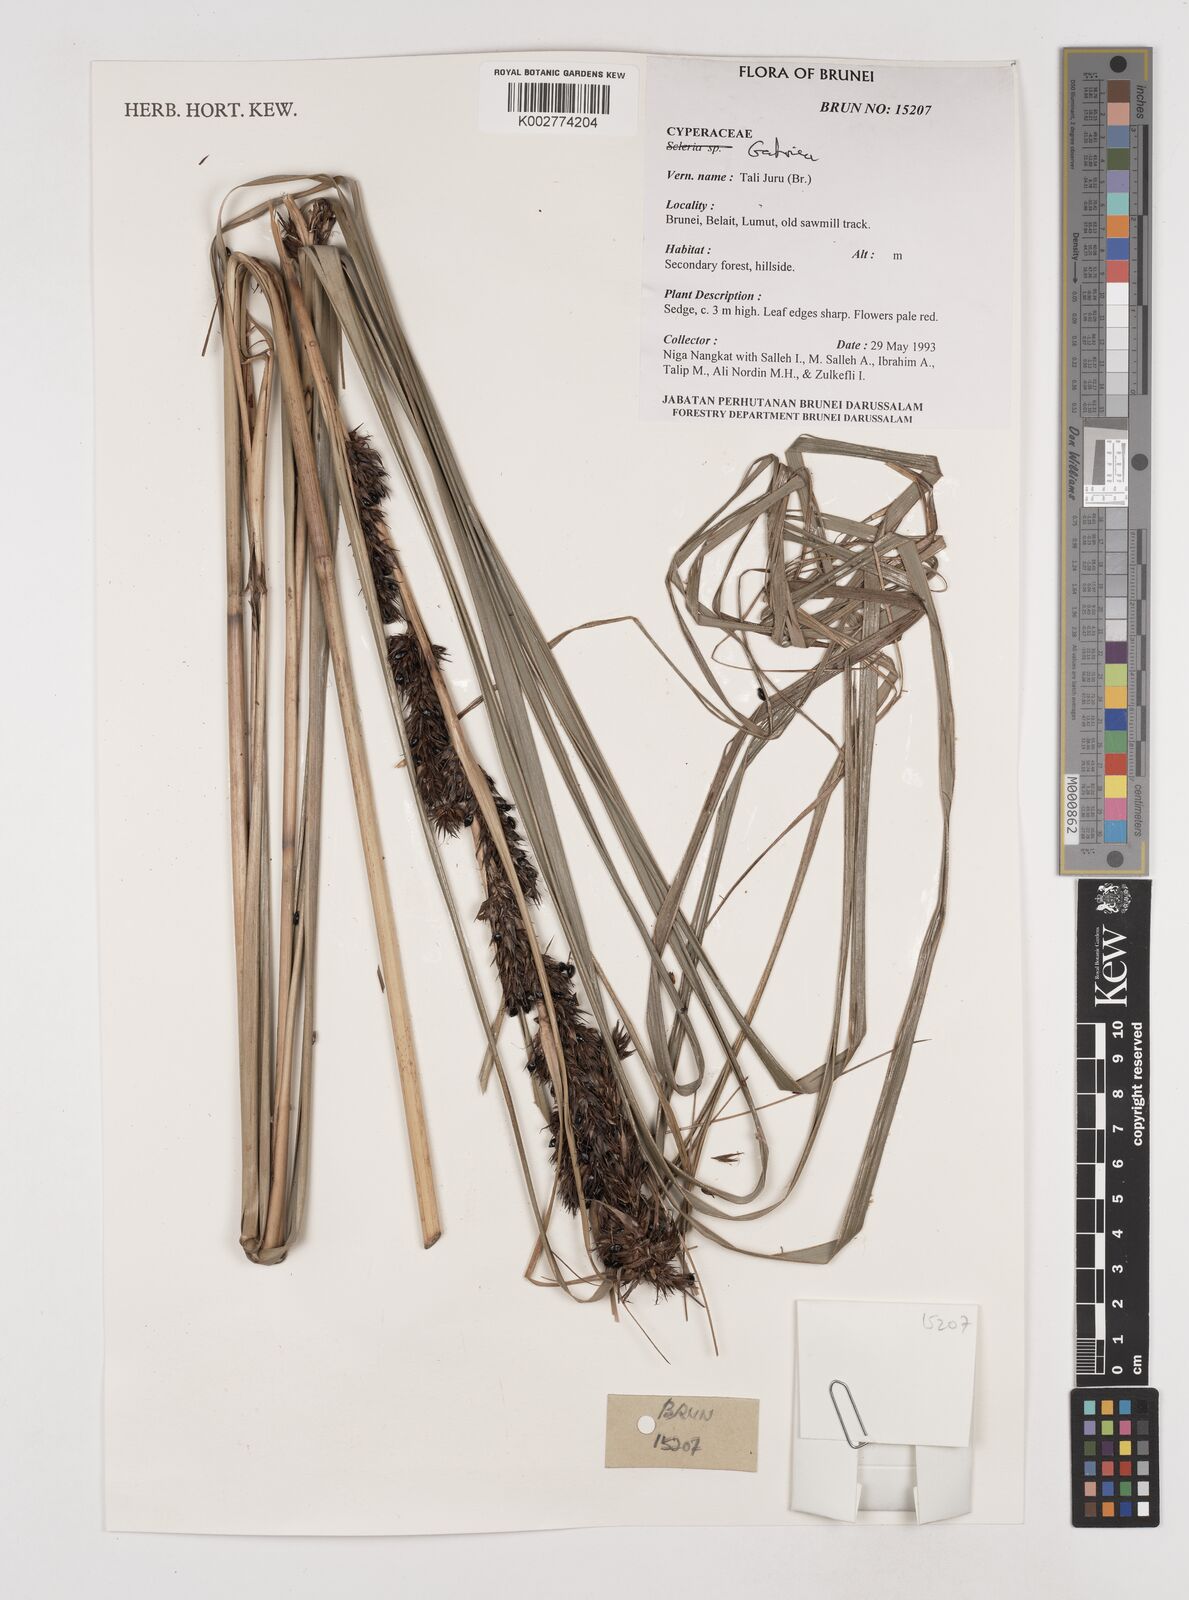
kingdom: Plantae
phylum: Tracheophyta
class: Liliopsida
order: Poales
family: Cyperaceae
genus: Gahnia
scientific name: Gahnia
